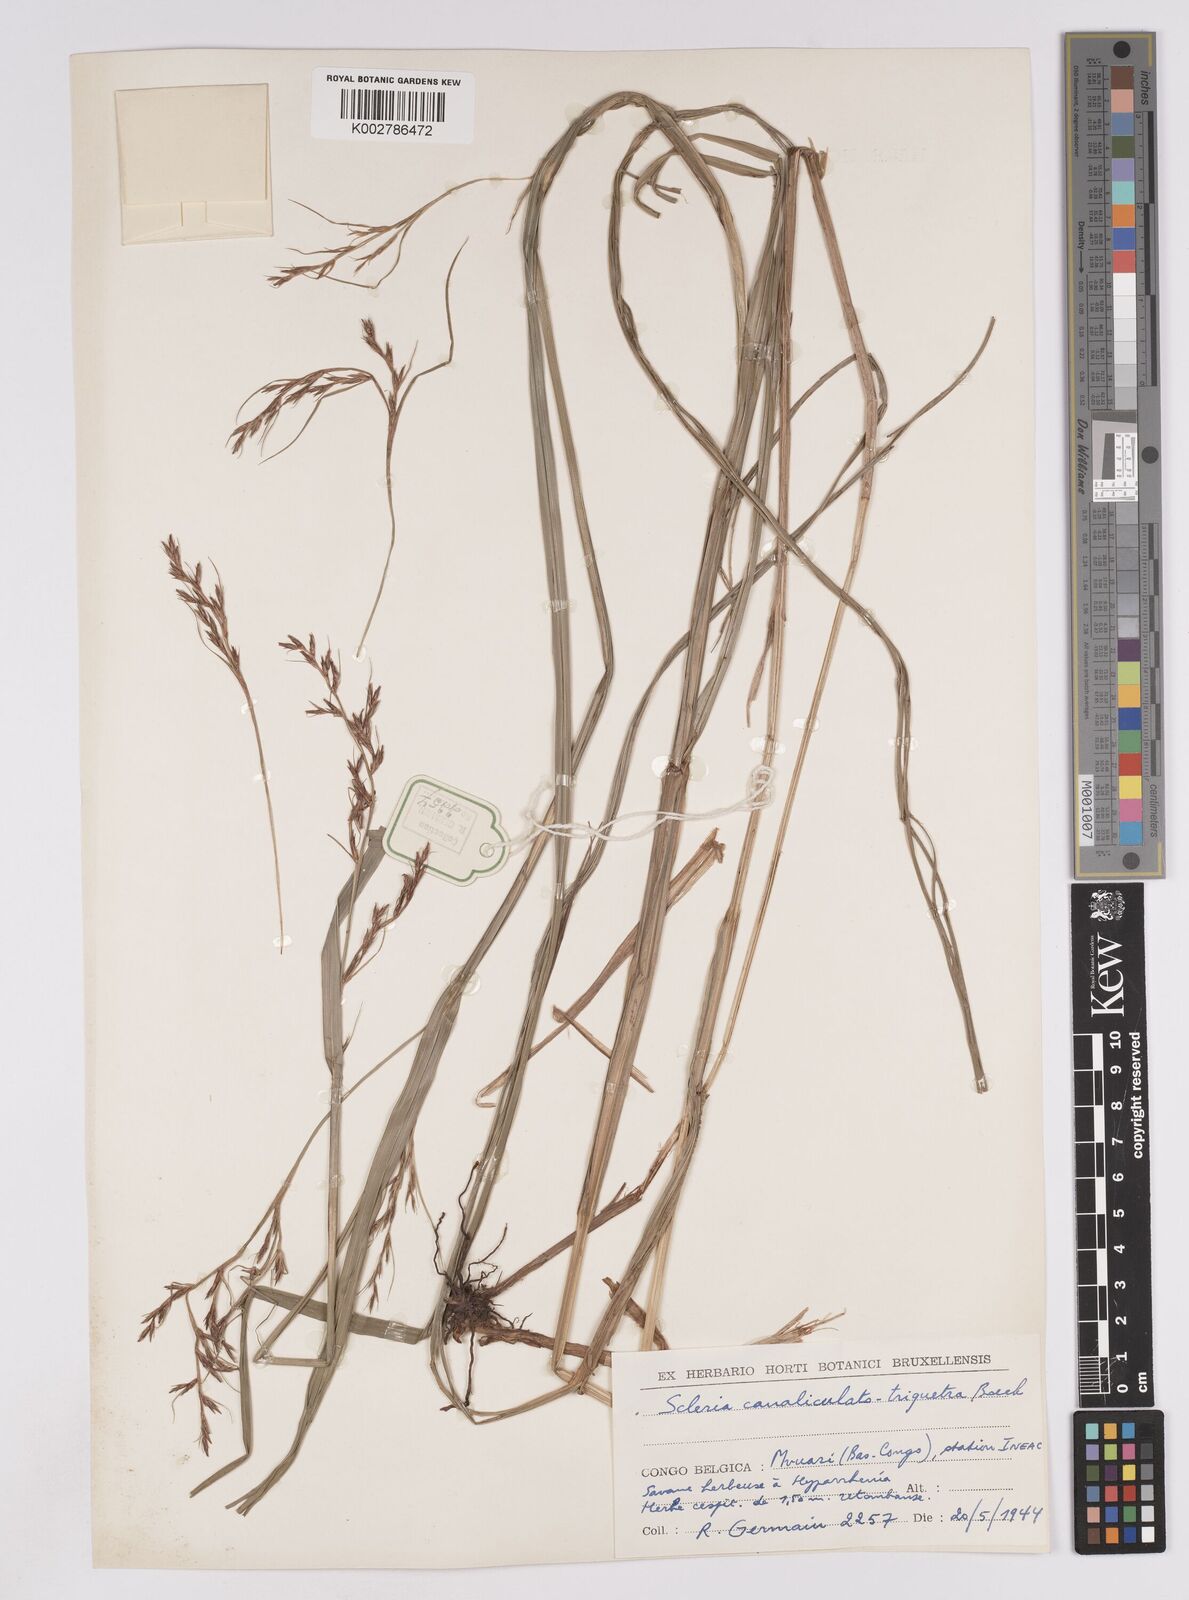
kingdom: Plantae
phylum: Tracheophyta
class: Liliopsida
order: Poales
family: Cyperaceae
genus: Scleria
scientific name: Scleria lagoensis
